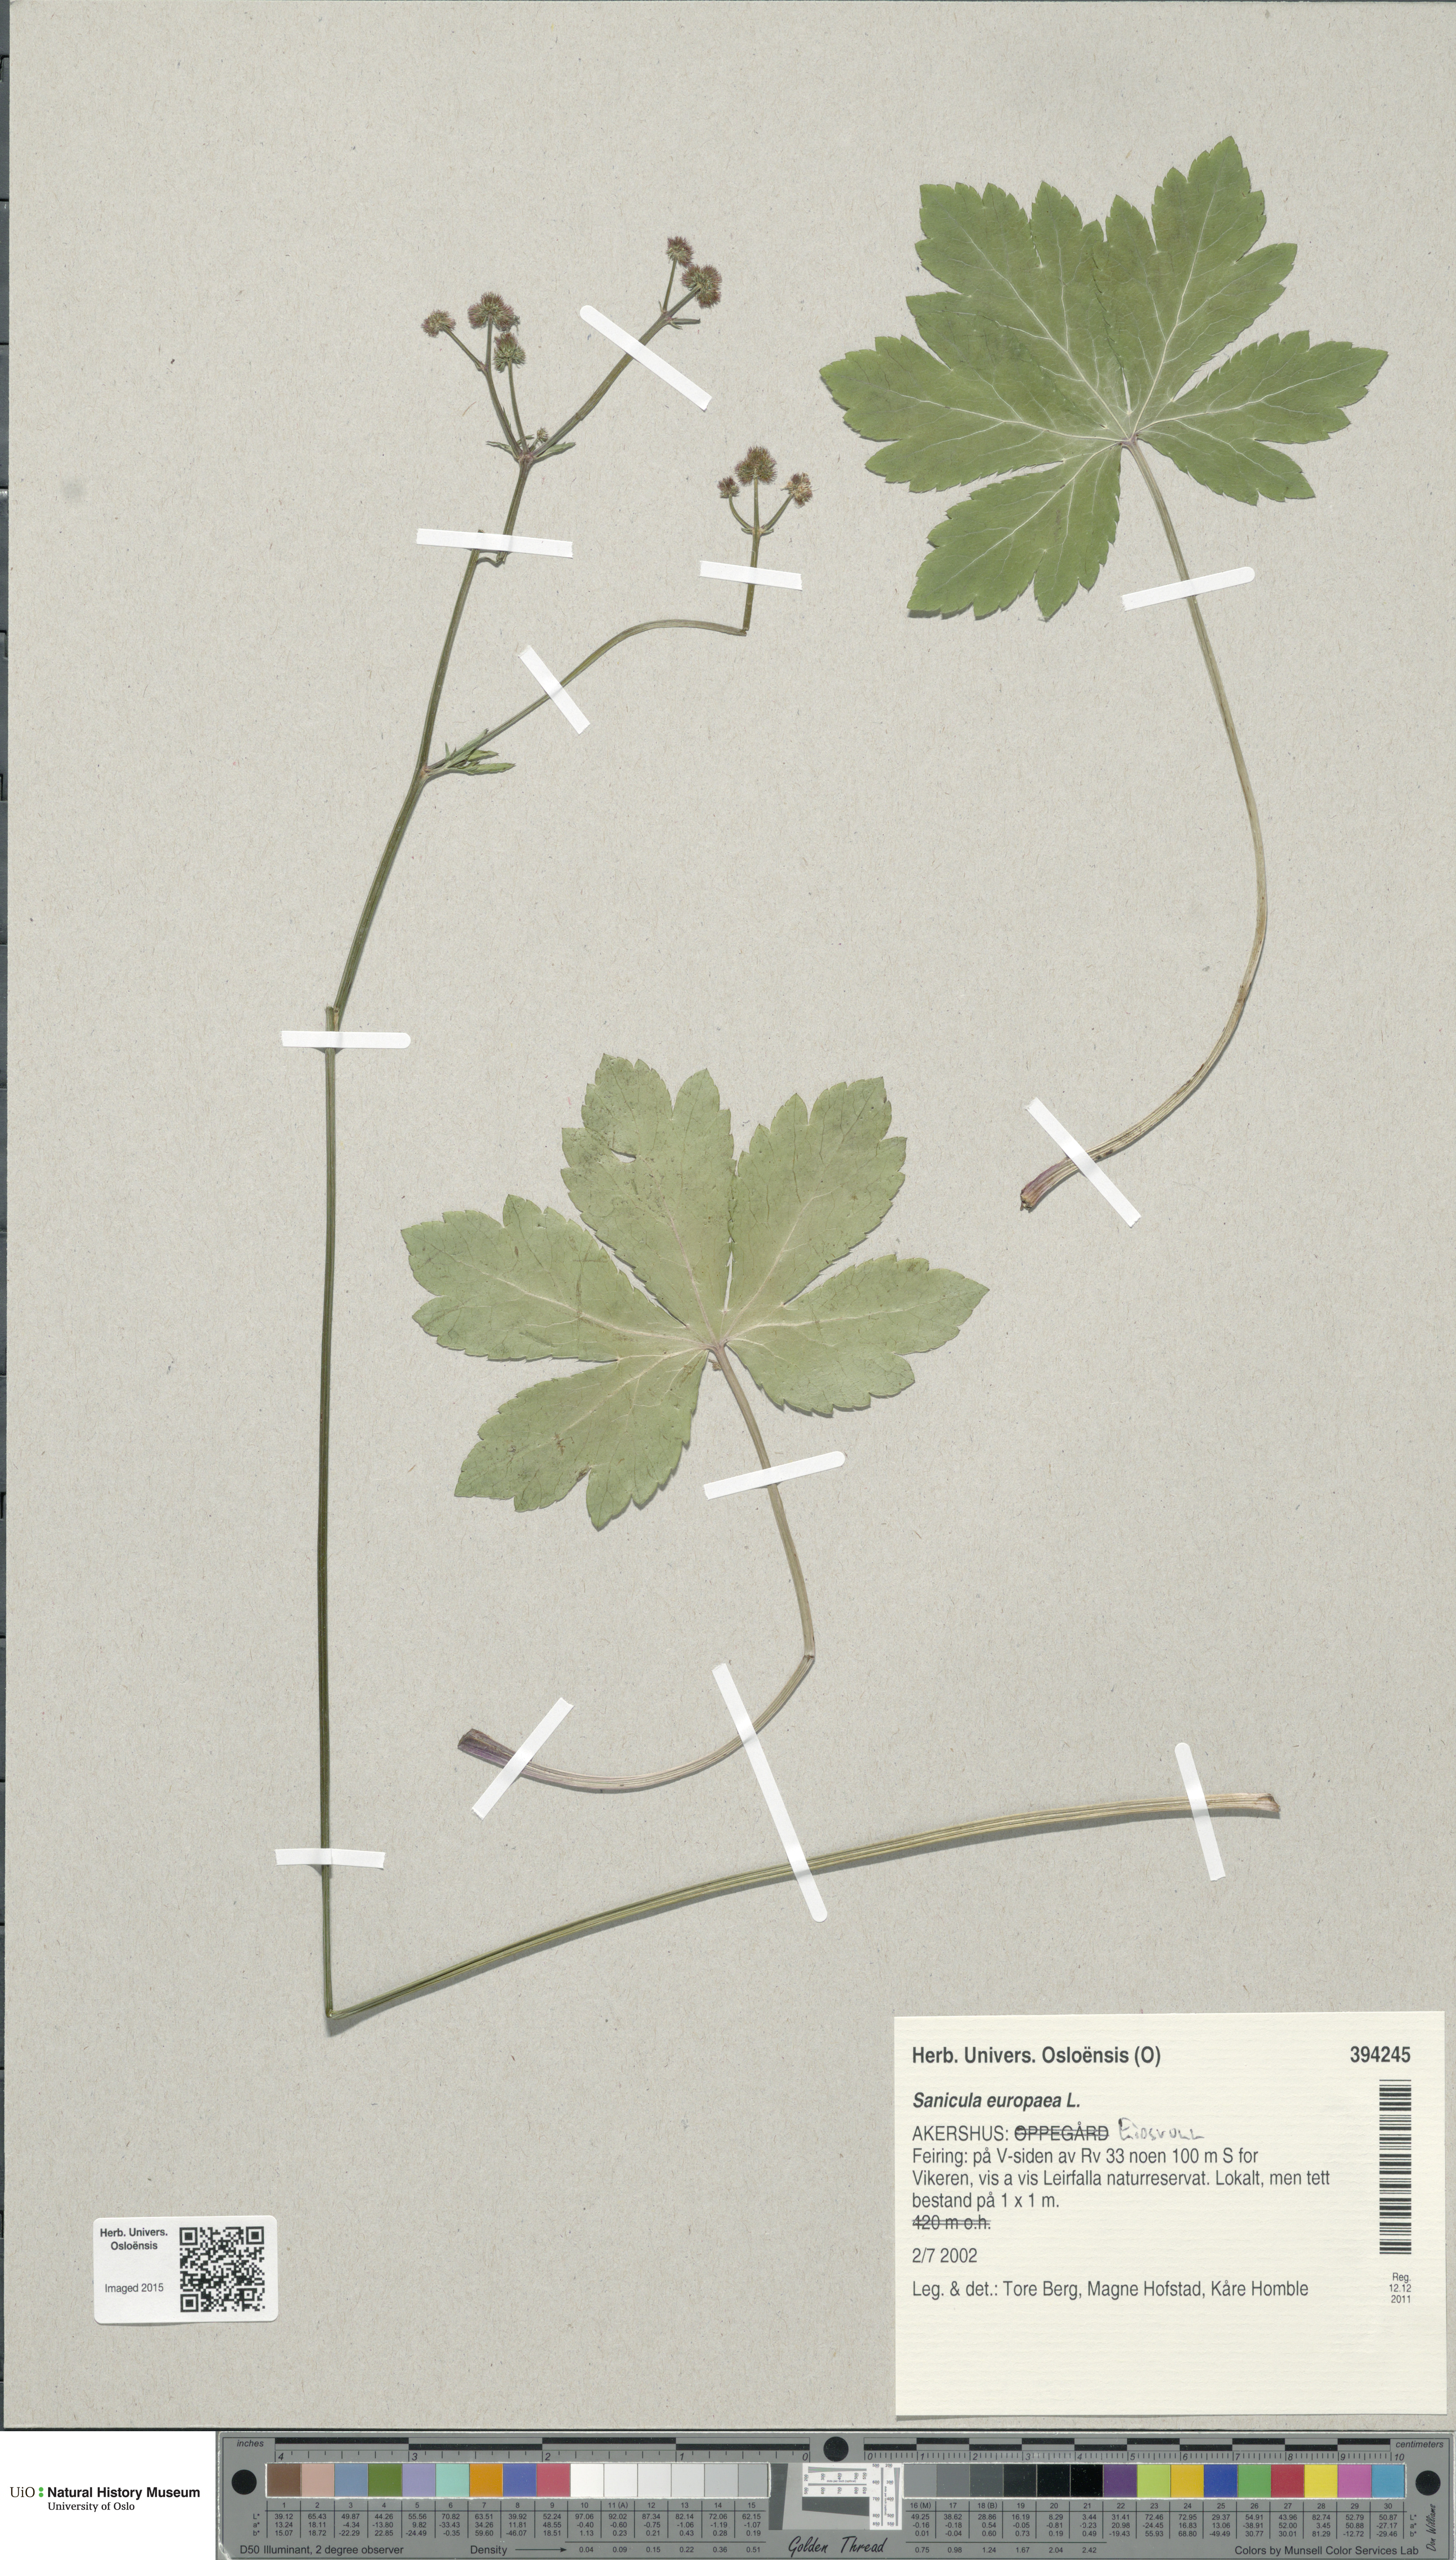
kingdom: Plantae
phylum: Tracheophyta
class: Magnoliopsida
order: Apiales
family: Apiaceae
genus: Sanicula
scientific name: Sanicula europaea
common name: Sanicle
